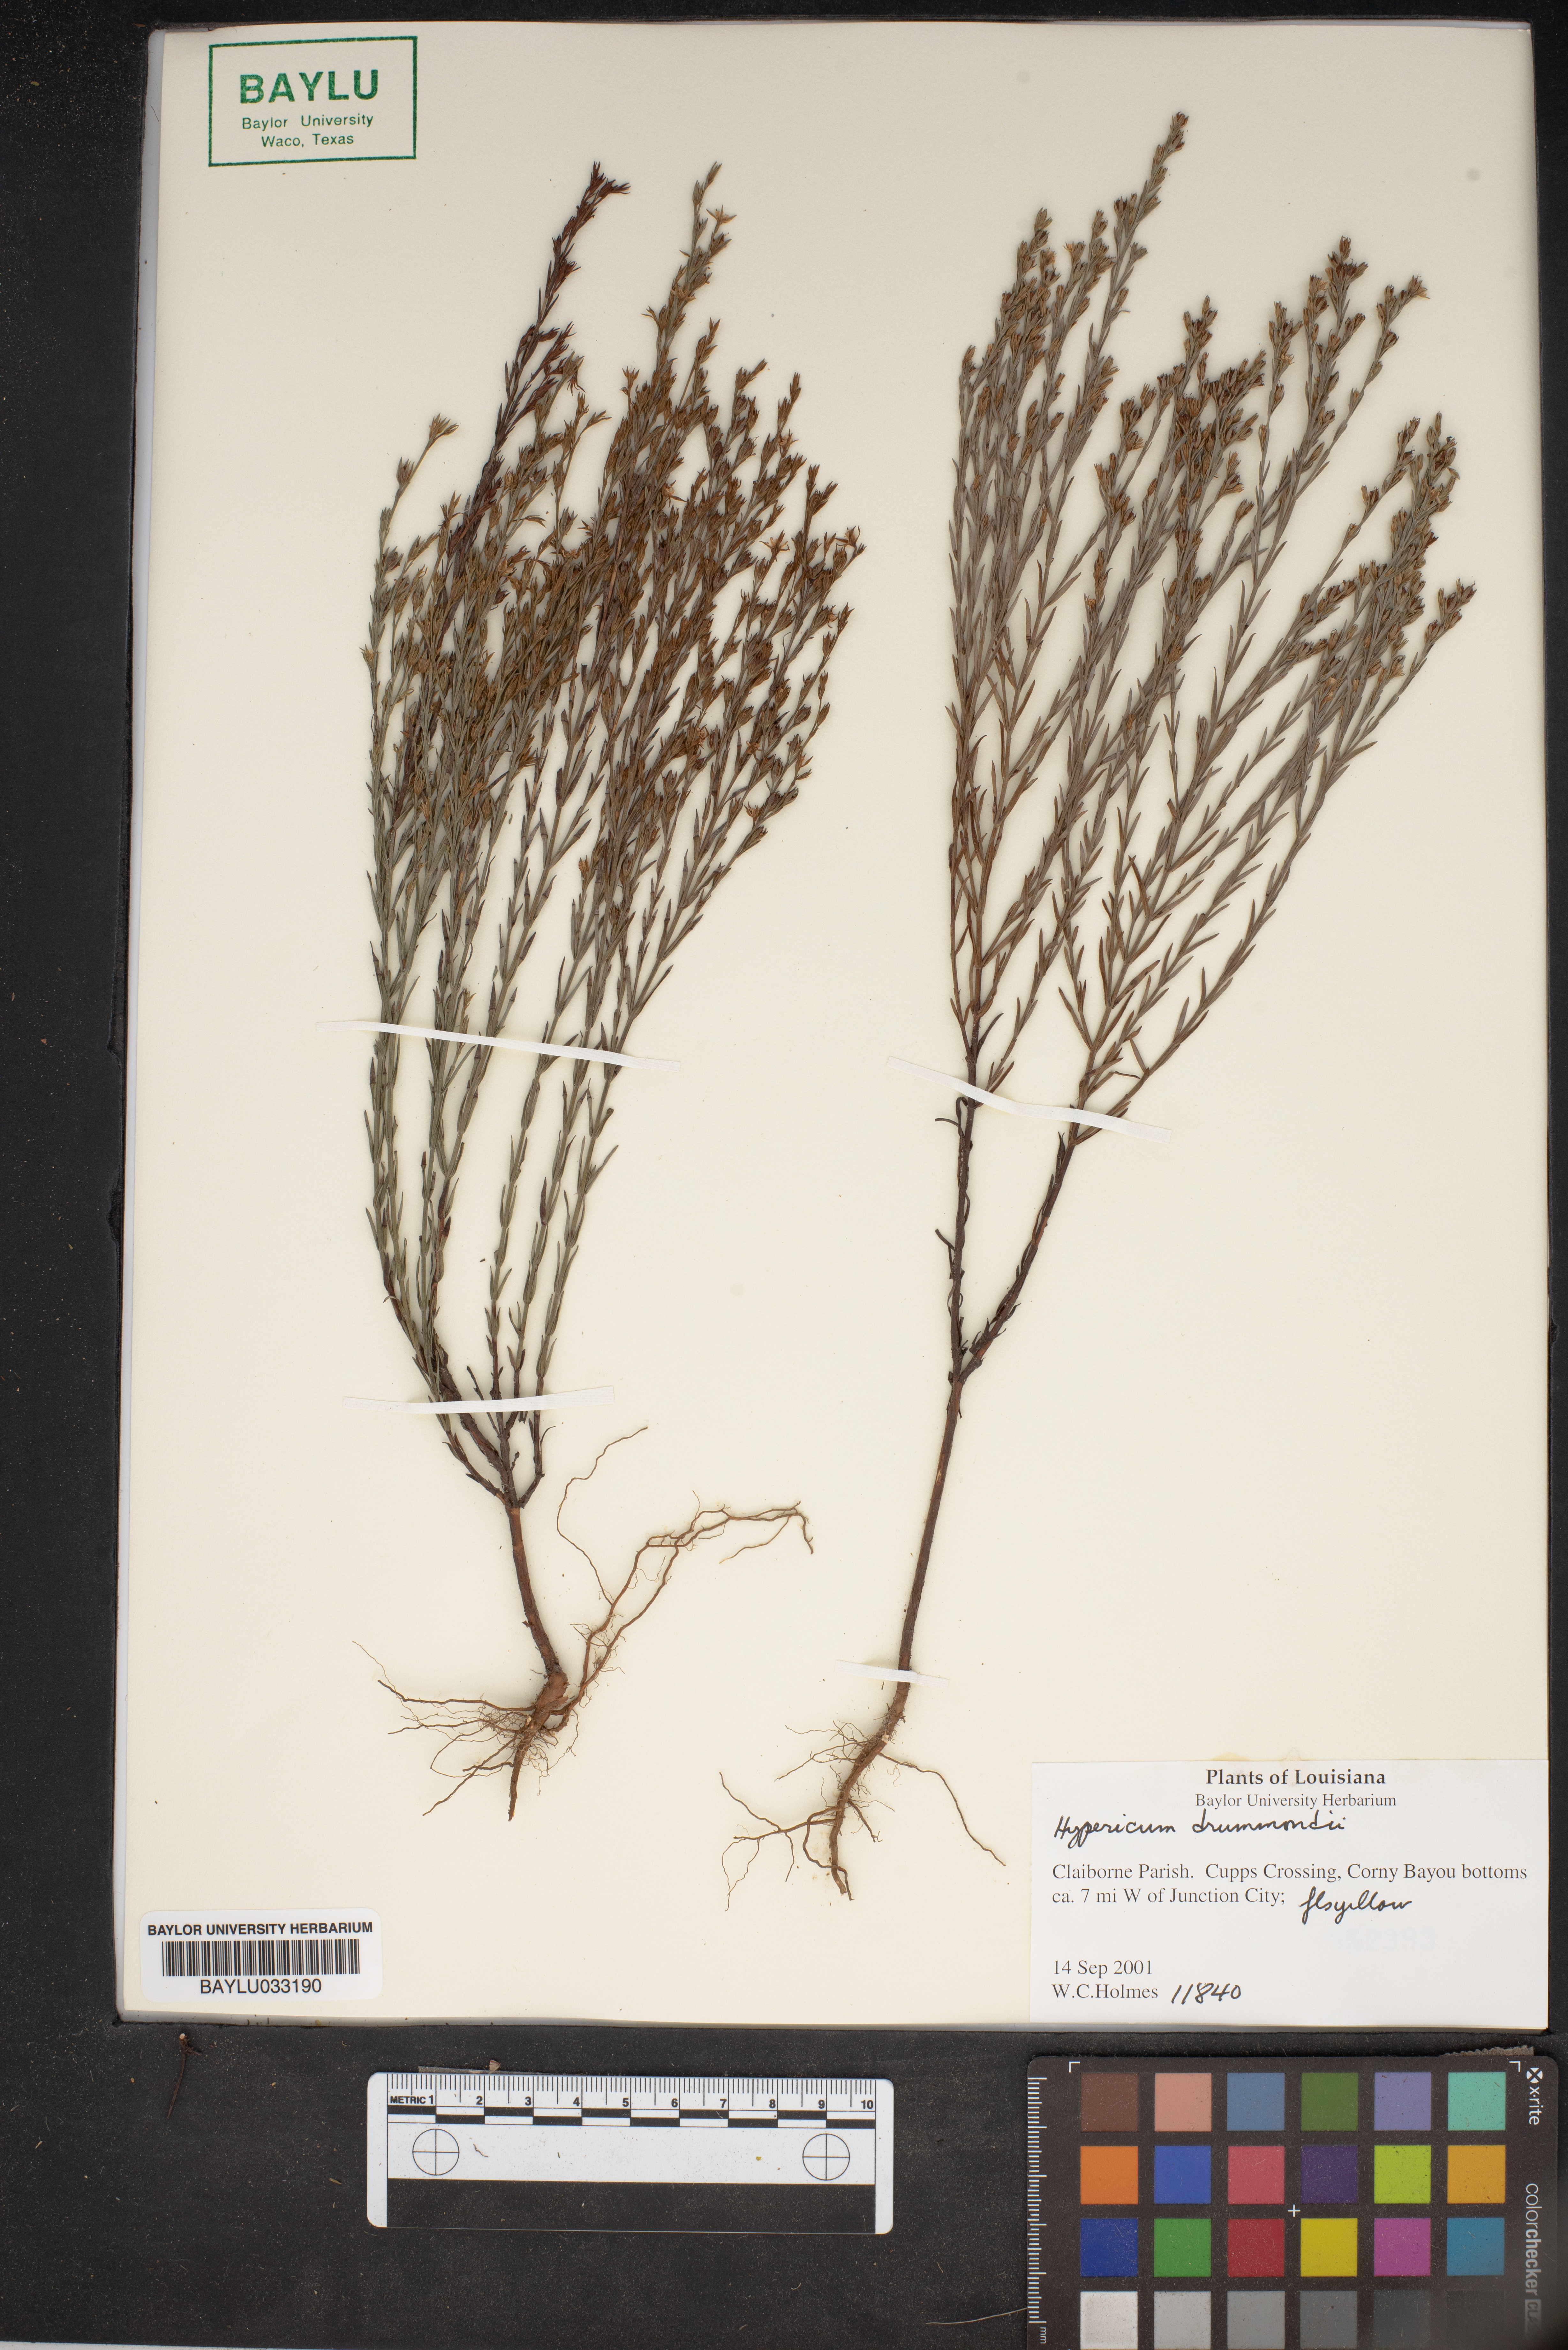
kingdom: Plantae
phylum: Tracheophyta
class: Magnoliopsida
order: Malpighiales
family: Hypericaceae
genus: Hypericum
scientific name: Hypericum drummondii
